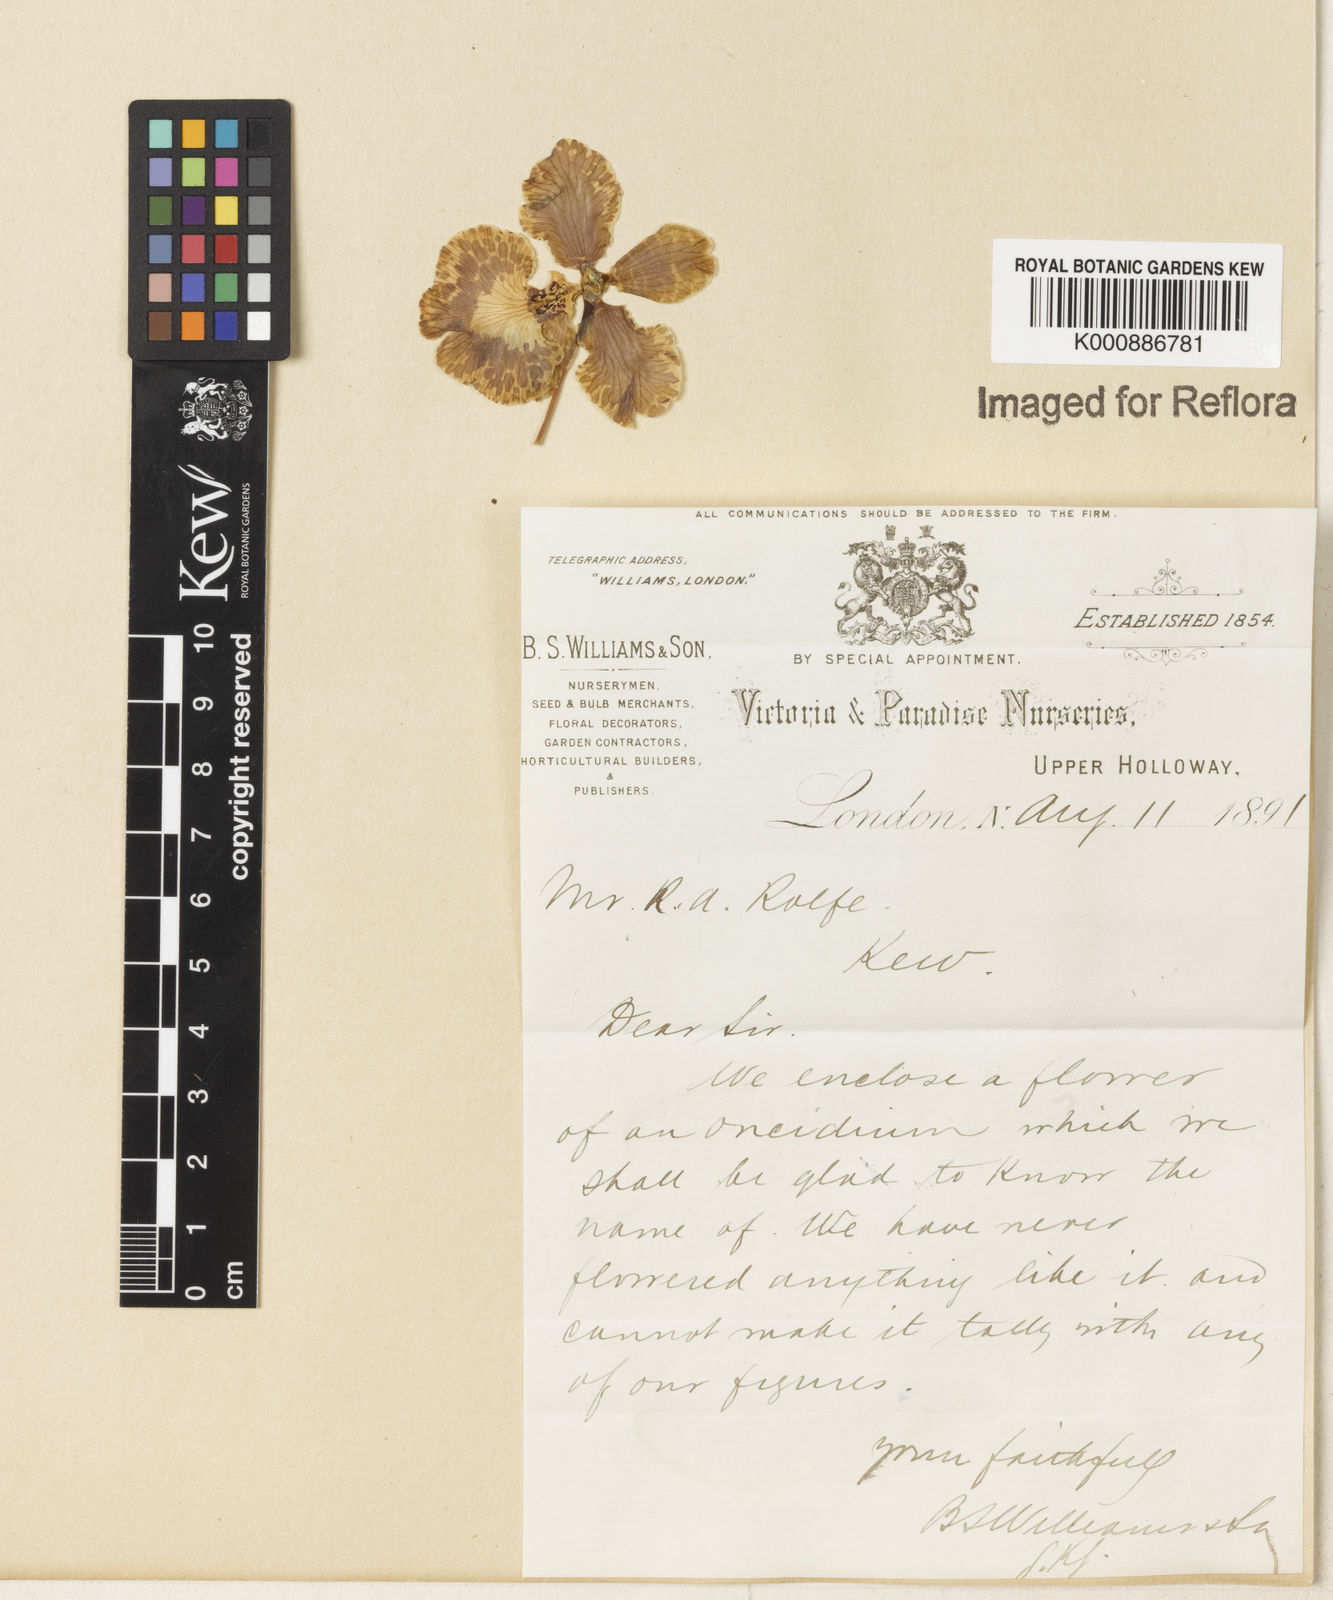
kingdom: Plantae
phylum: Tracheophyta
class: Liliopsida
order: Asparagales
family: Orchidaceae
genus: Gomesa
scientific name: Gomesa forbesii
